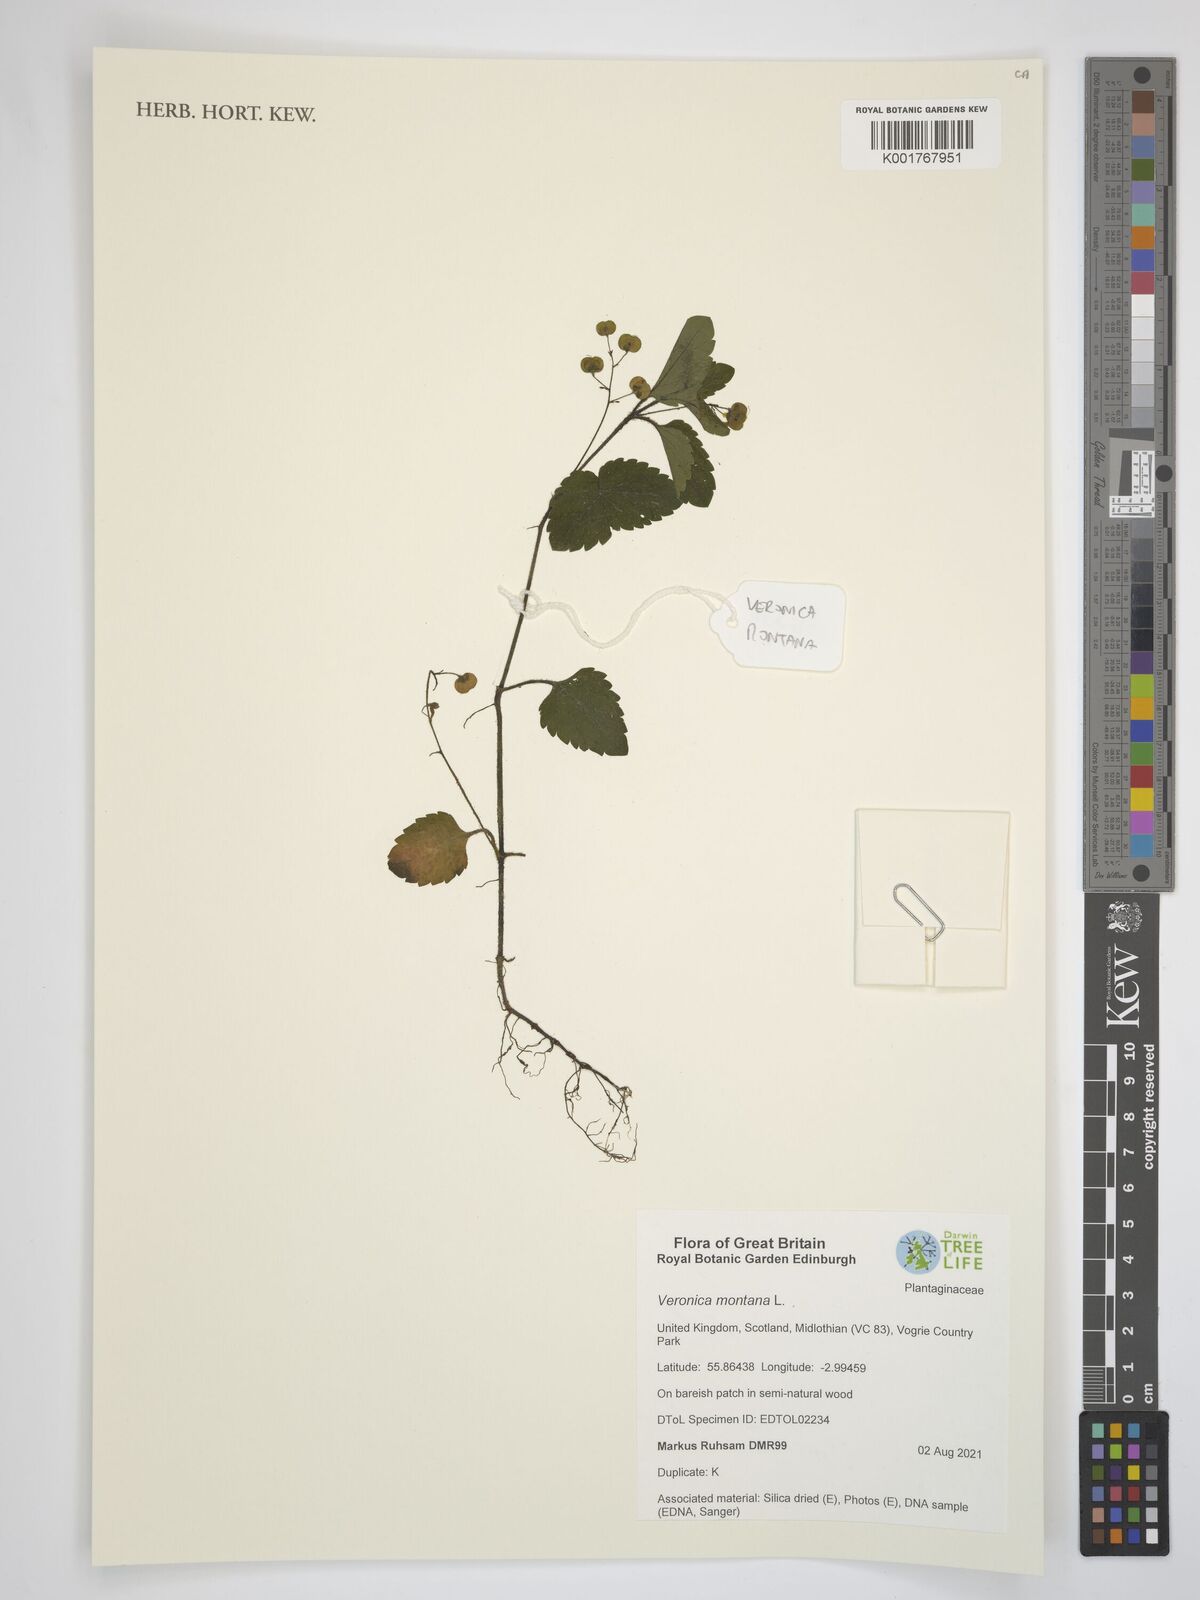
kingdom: Plantae
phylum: Tracheophyta
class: Magnoliopsida
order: Lamiales
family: Plantaginaceae
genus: Veronica
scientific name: Veronica montana
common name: Wood speedwell
